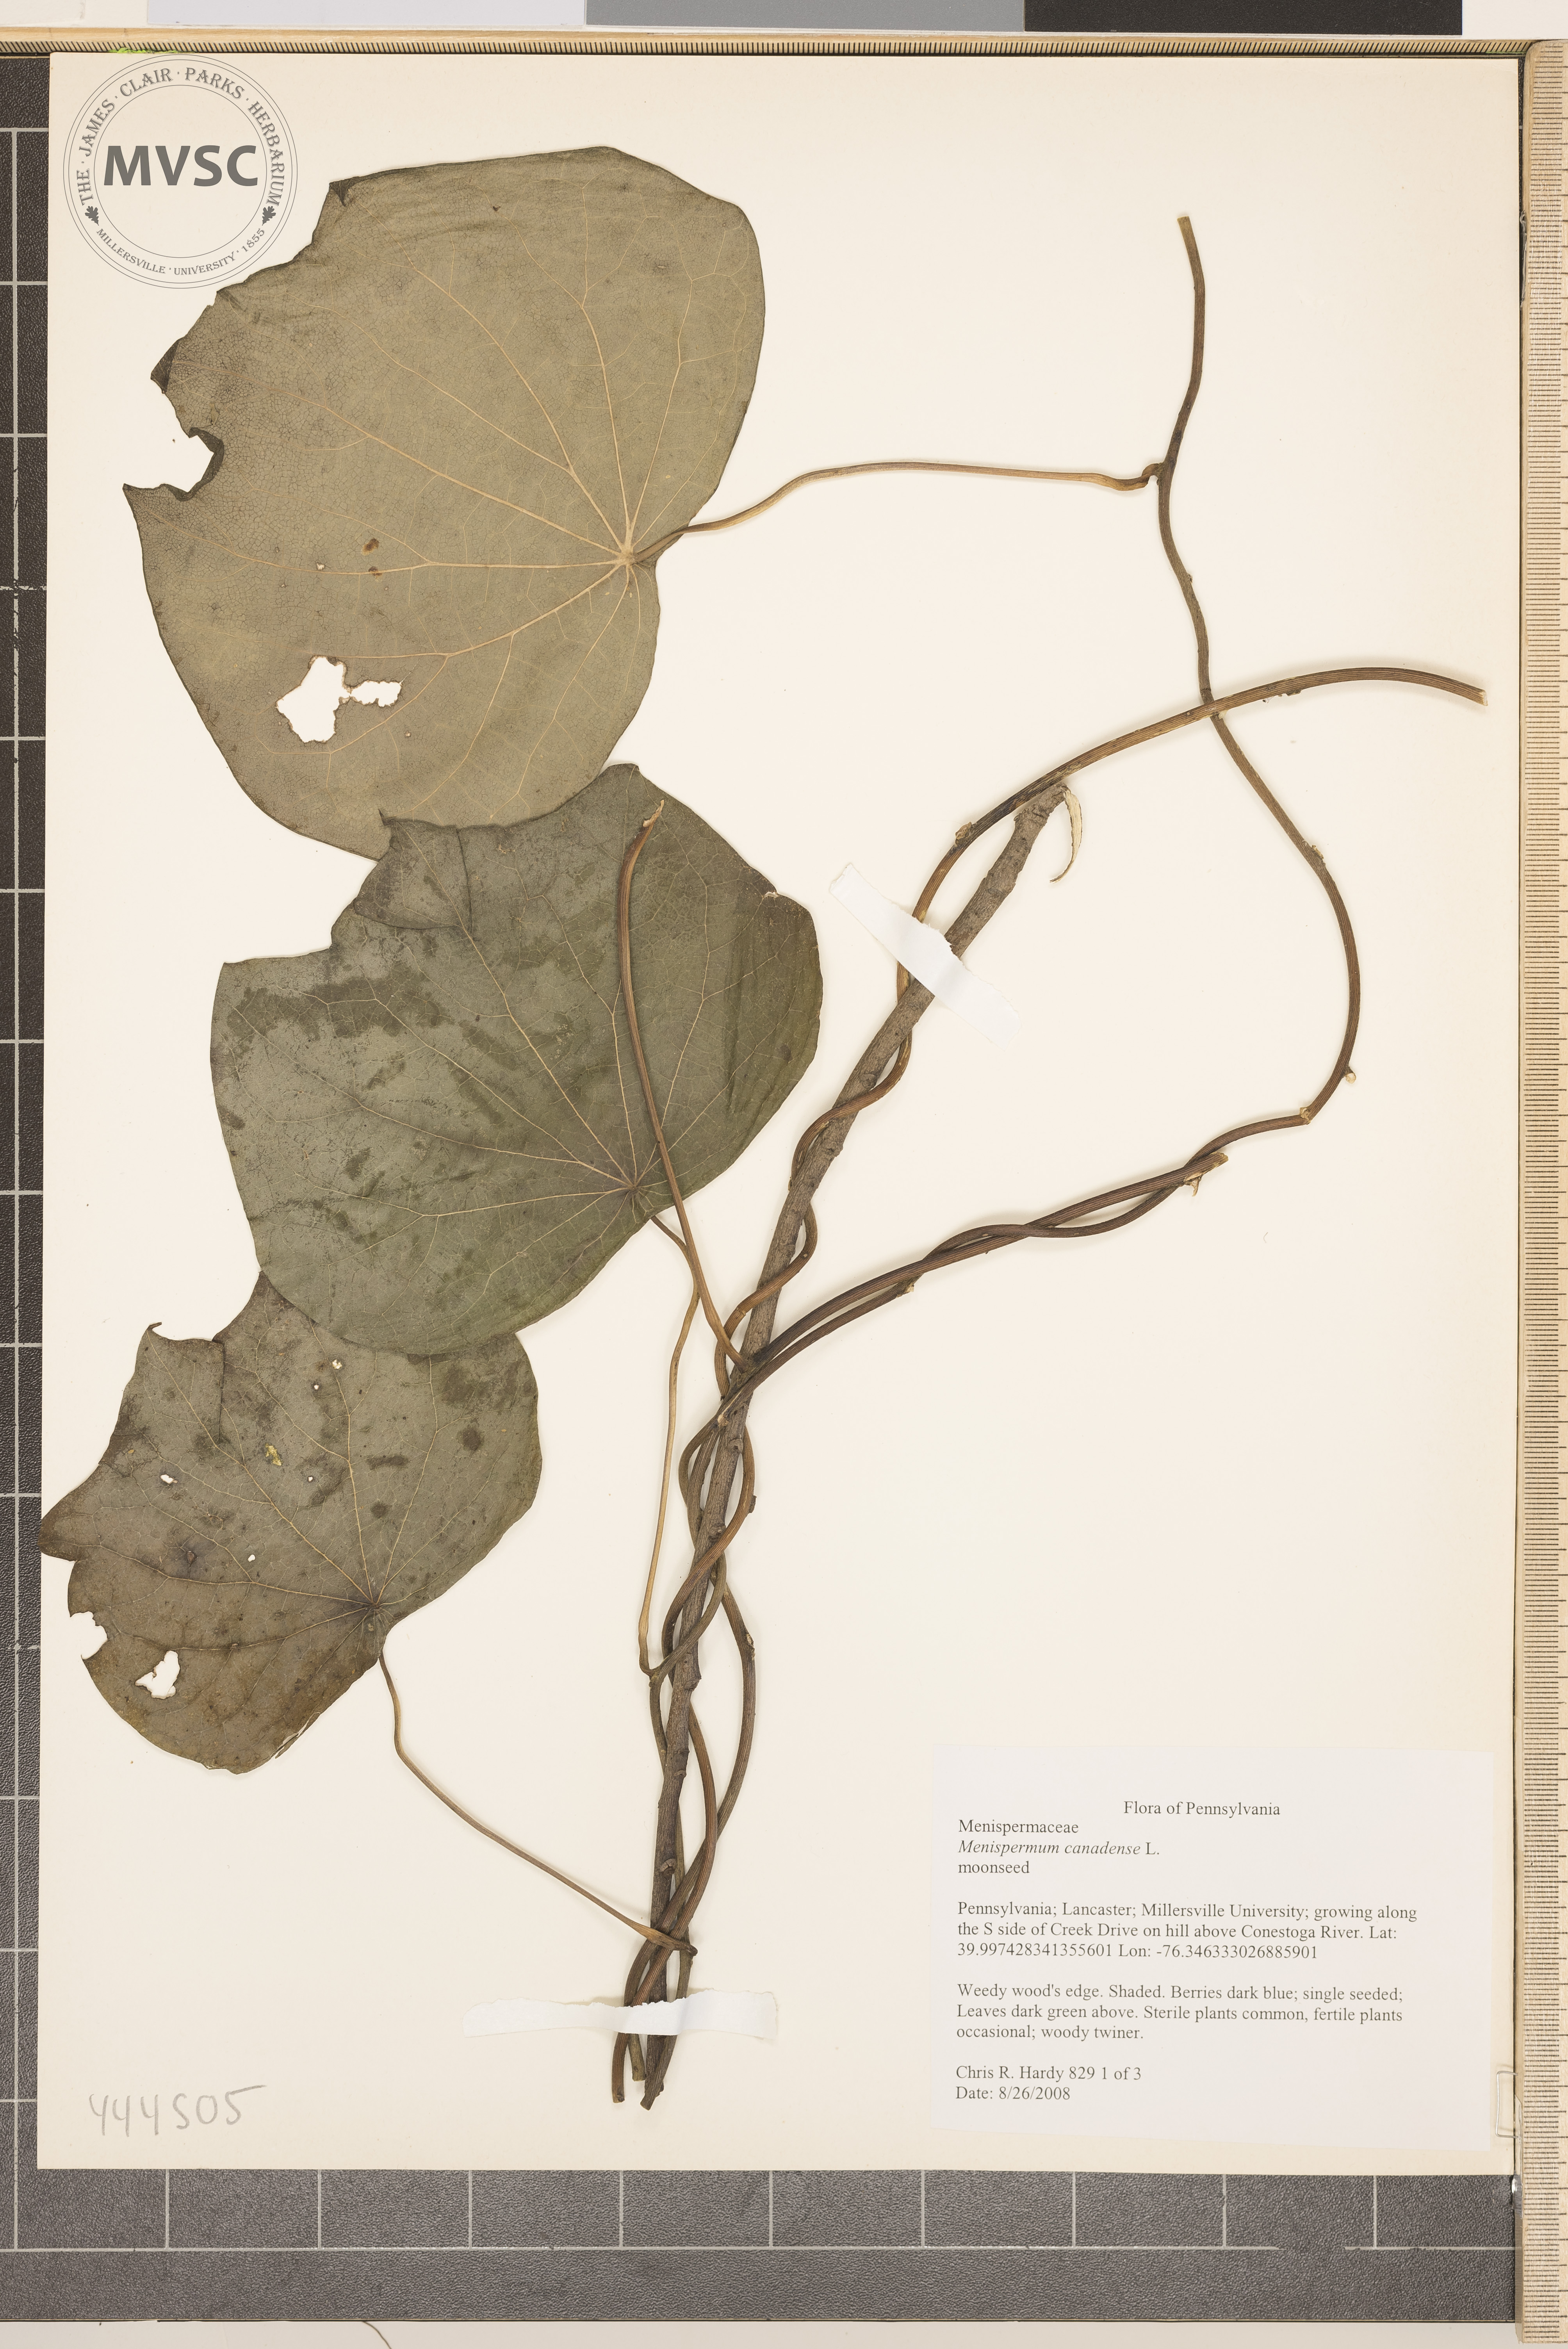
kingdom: Plantae
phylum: Tracheophyta
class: Magnoliopsida
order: Ranunculales
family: Menispermaceae
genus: Menispermum
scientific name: Menispermum canadense
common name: Moonseed
